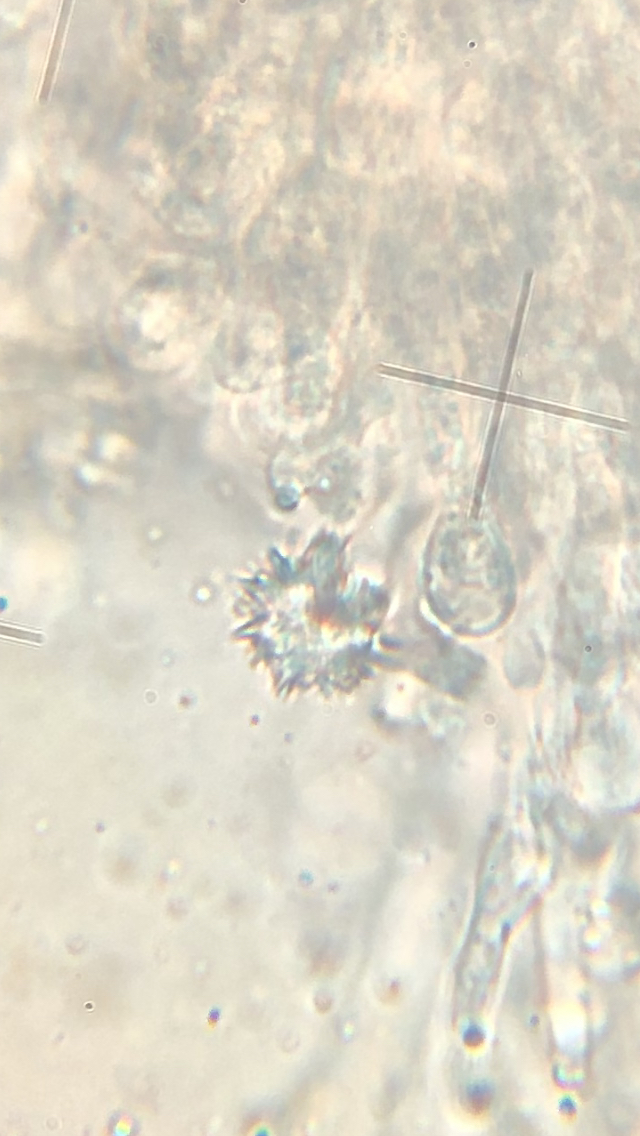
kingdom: Fungi
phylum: Basidiomycota
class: Agaricomycetes
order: Hymenochaetales
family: Rickenellaceae
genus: Resinicium
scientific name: Resinicium bicolor
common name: almindelig vokstand
